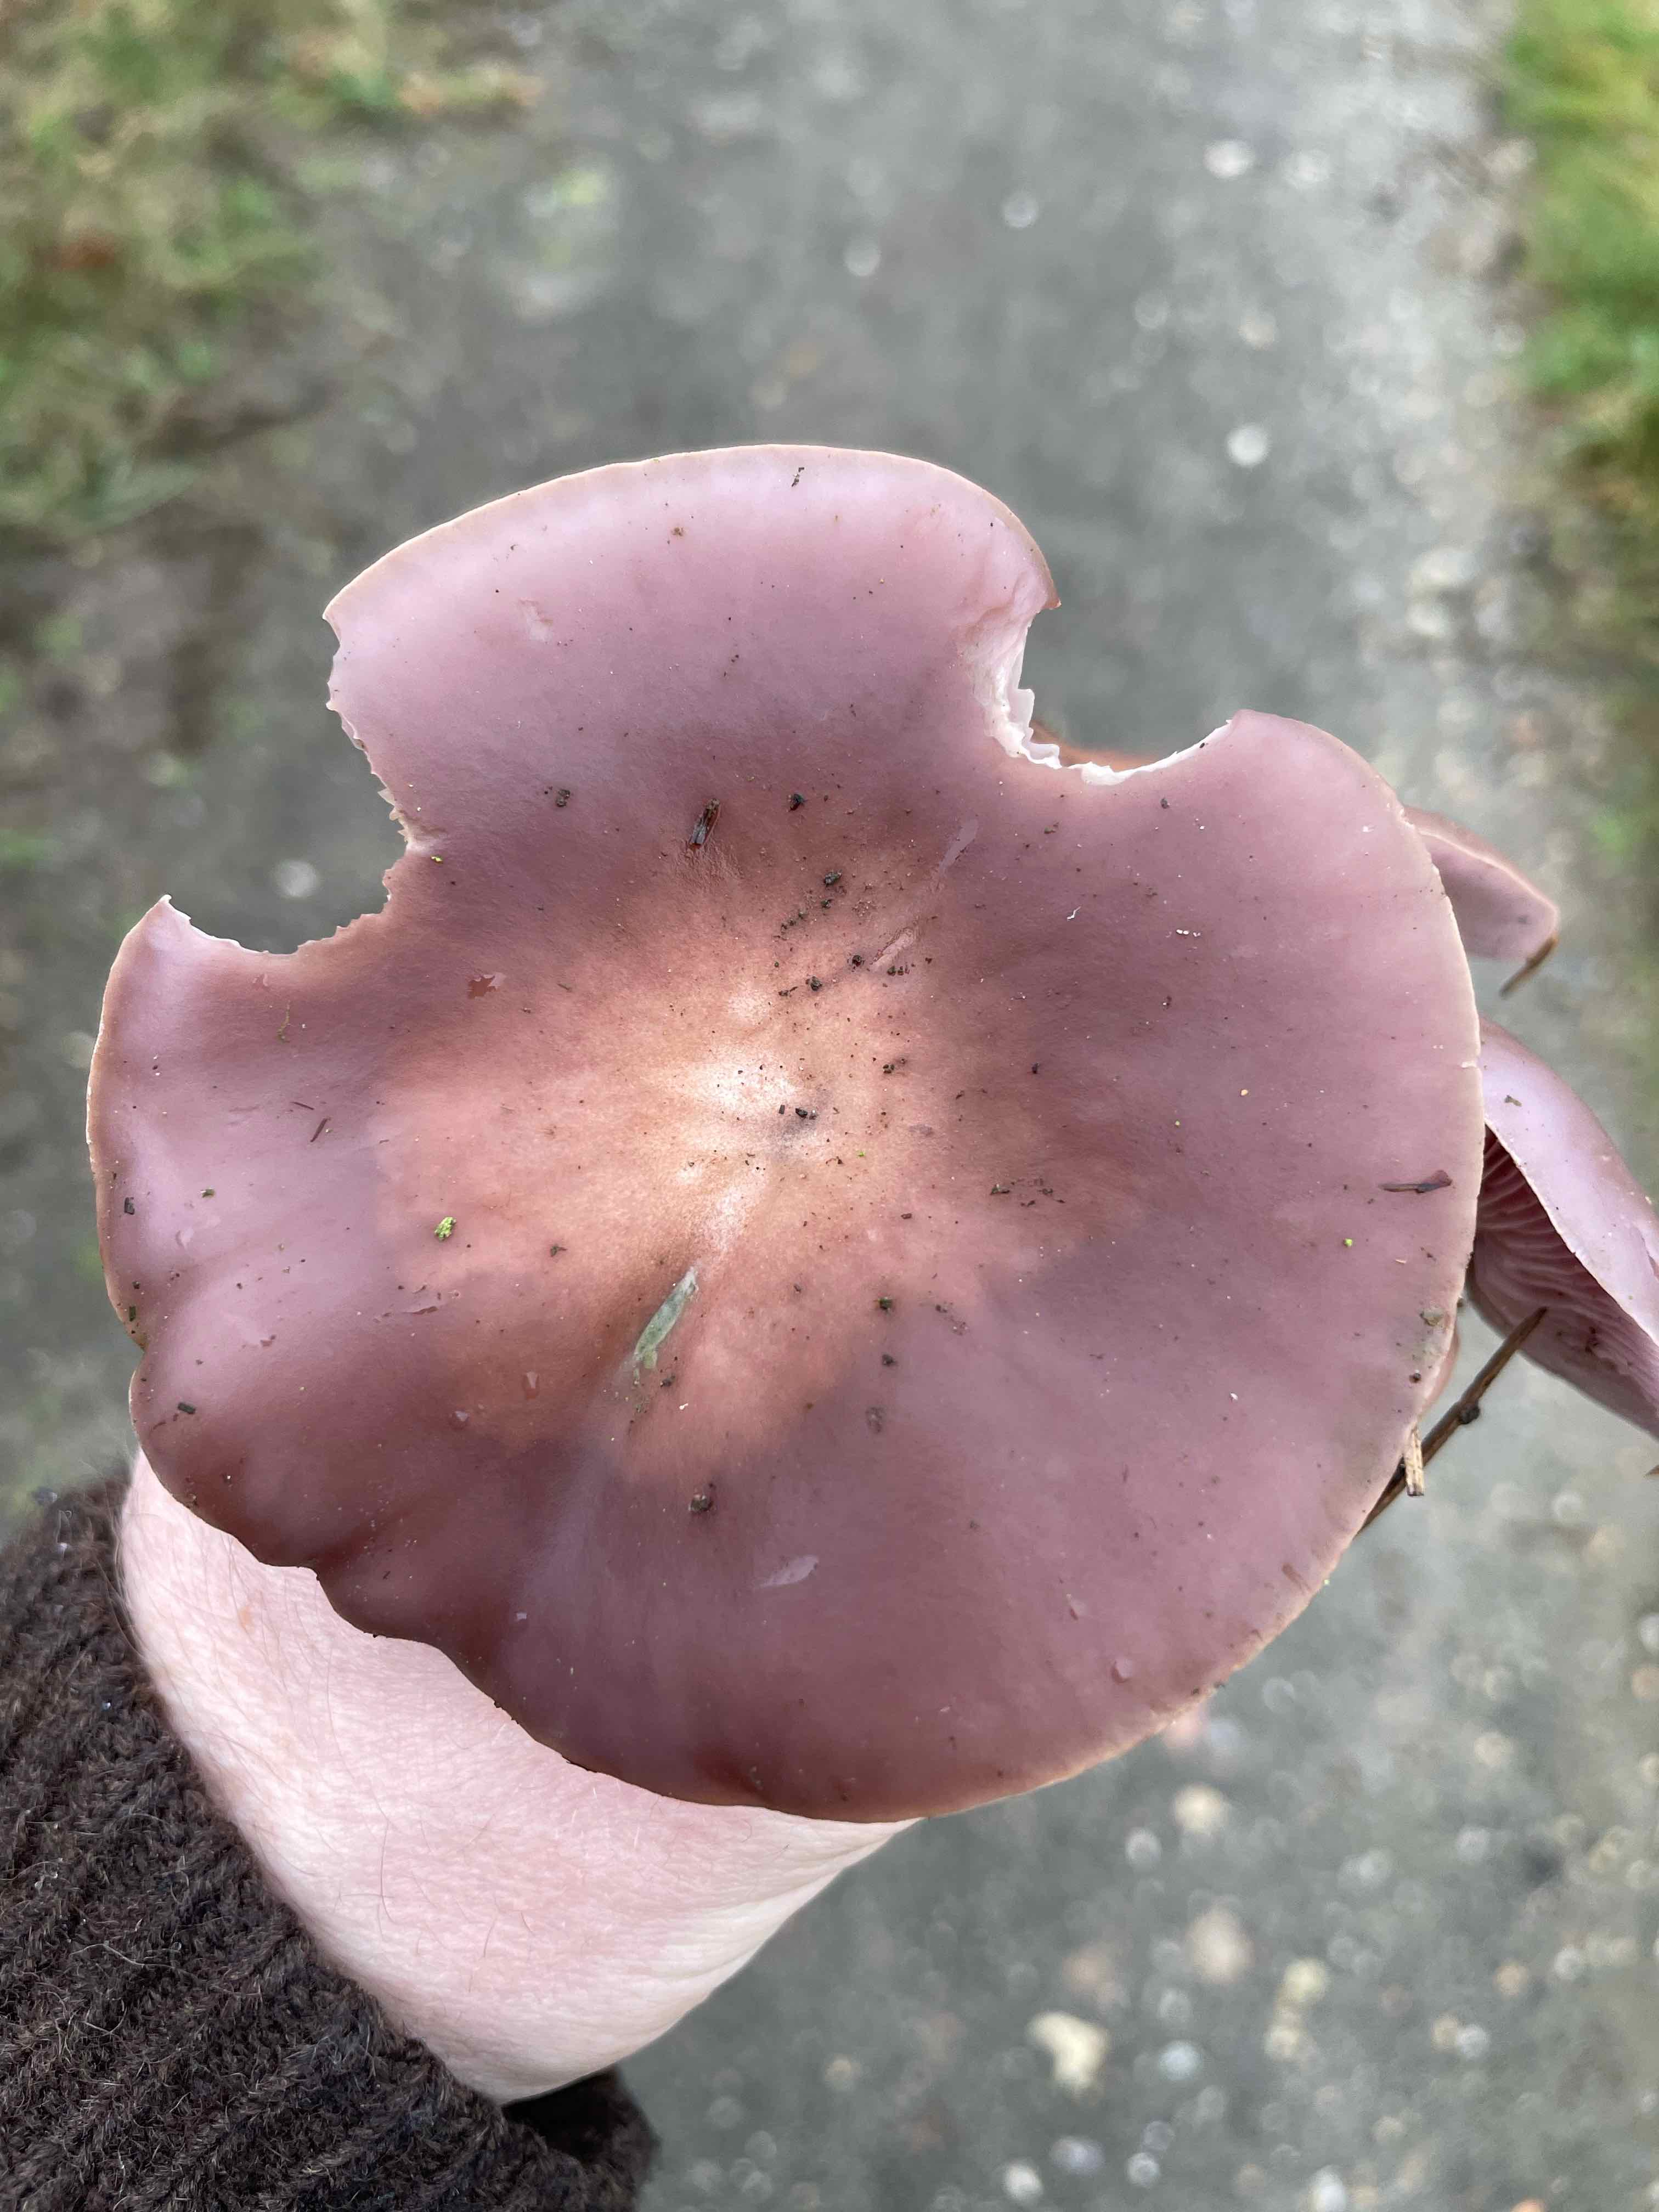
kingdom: Fungi
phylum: Basidiomycota
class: Agaricomycetes
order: Agaricales
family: Tricholomataceae
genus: Lepista
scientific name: Lepista lilacea
